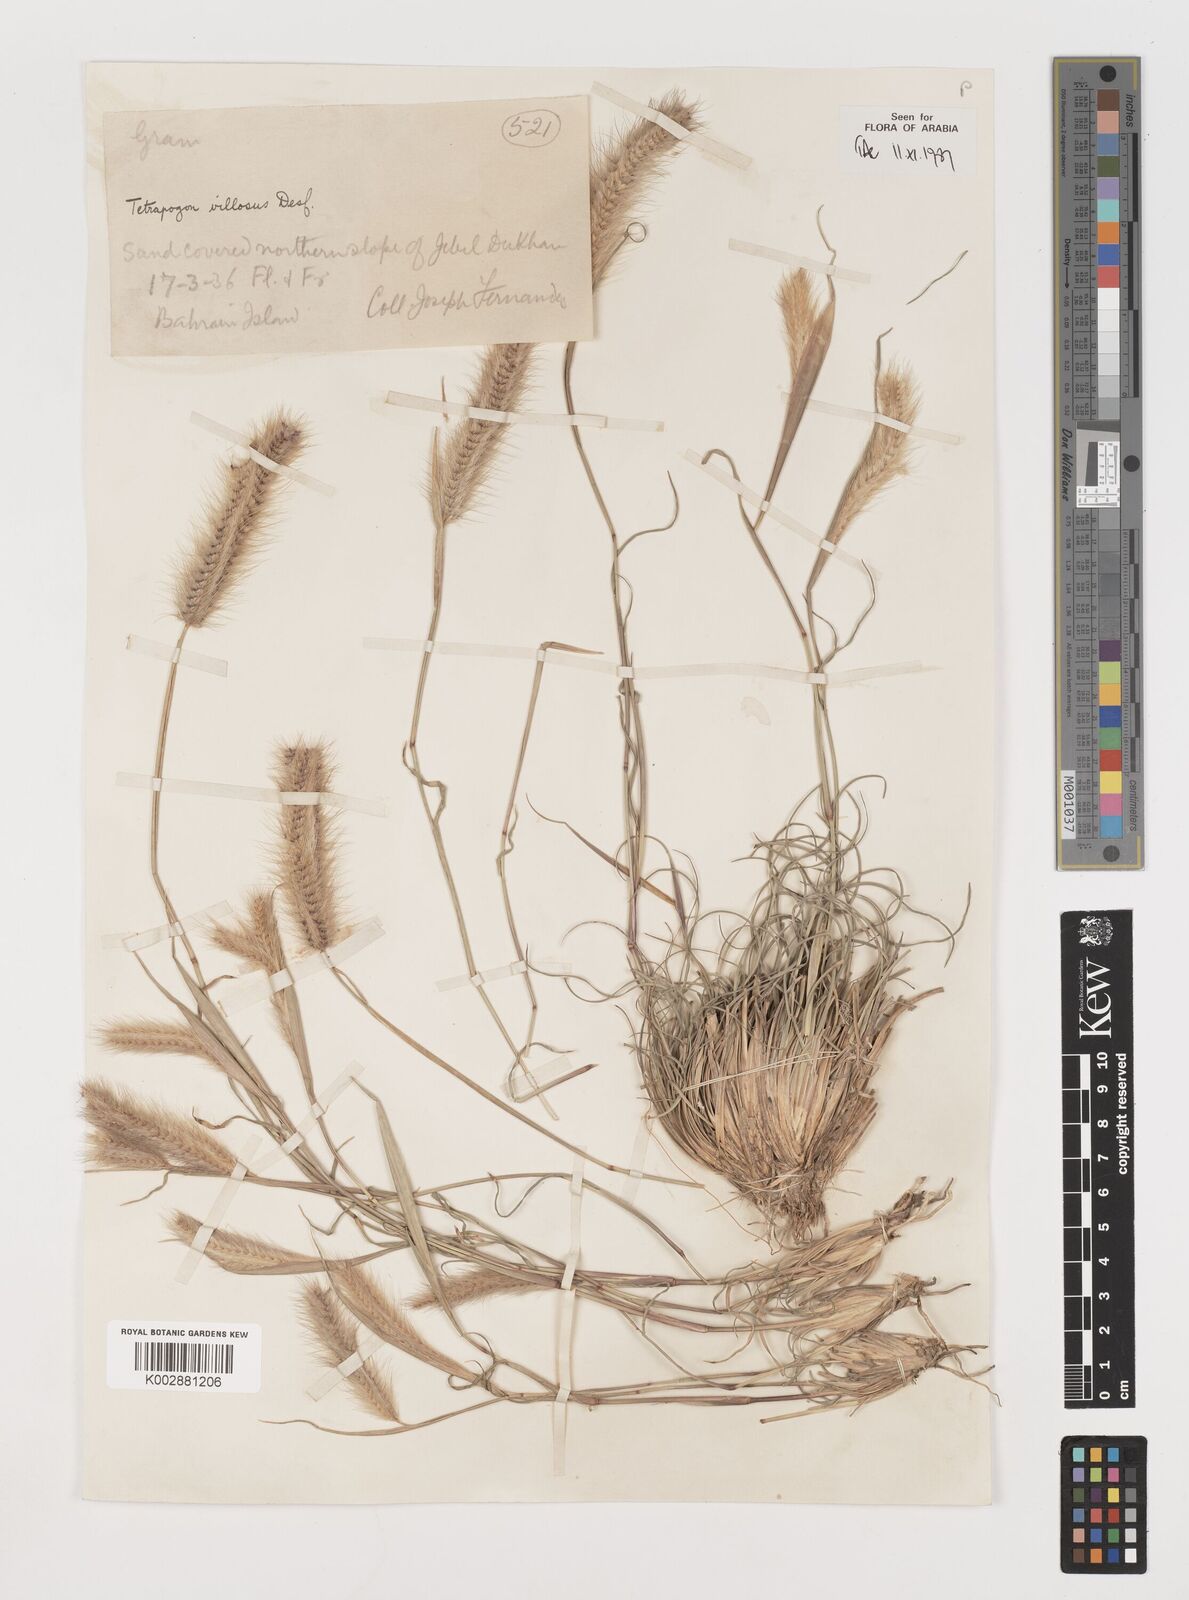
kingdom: Plantae
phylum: Tracheophyta
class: Liliopsida
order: Poales
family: Poaceae
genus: Tetrapogon
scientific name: Tetrapogon villosus
